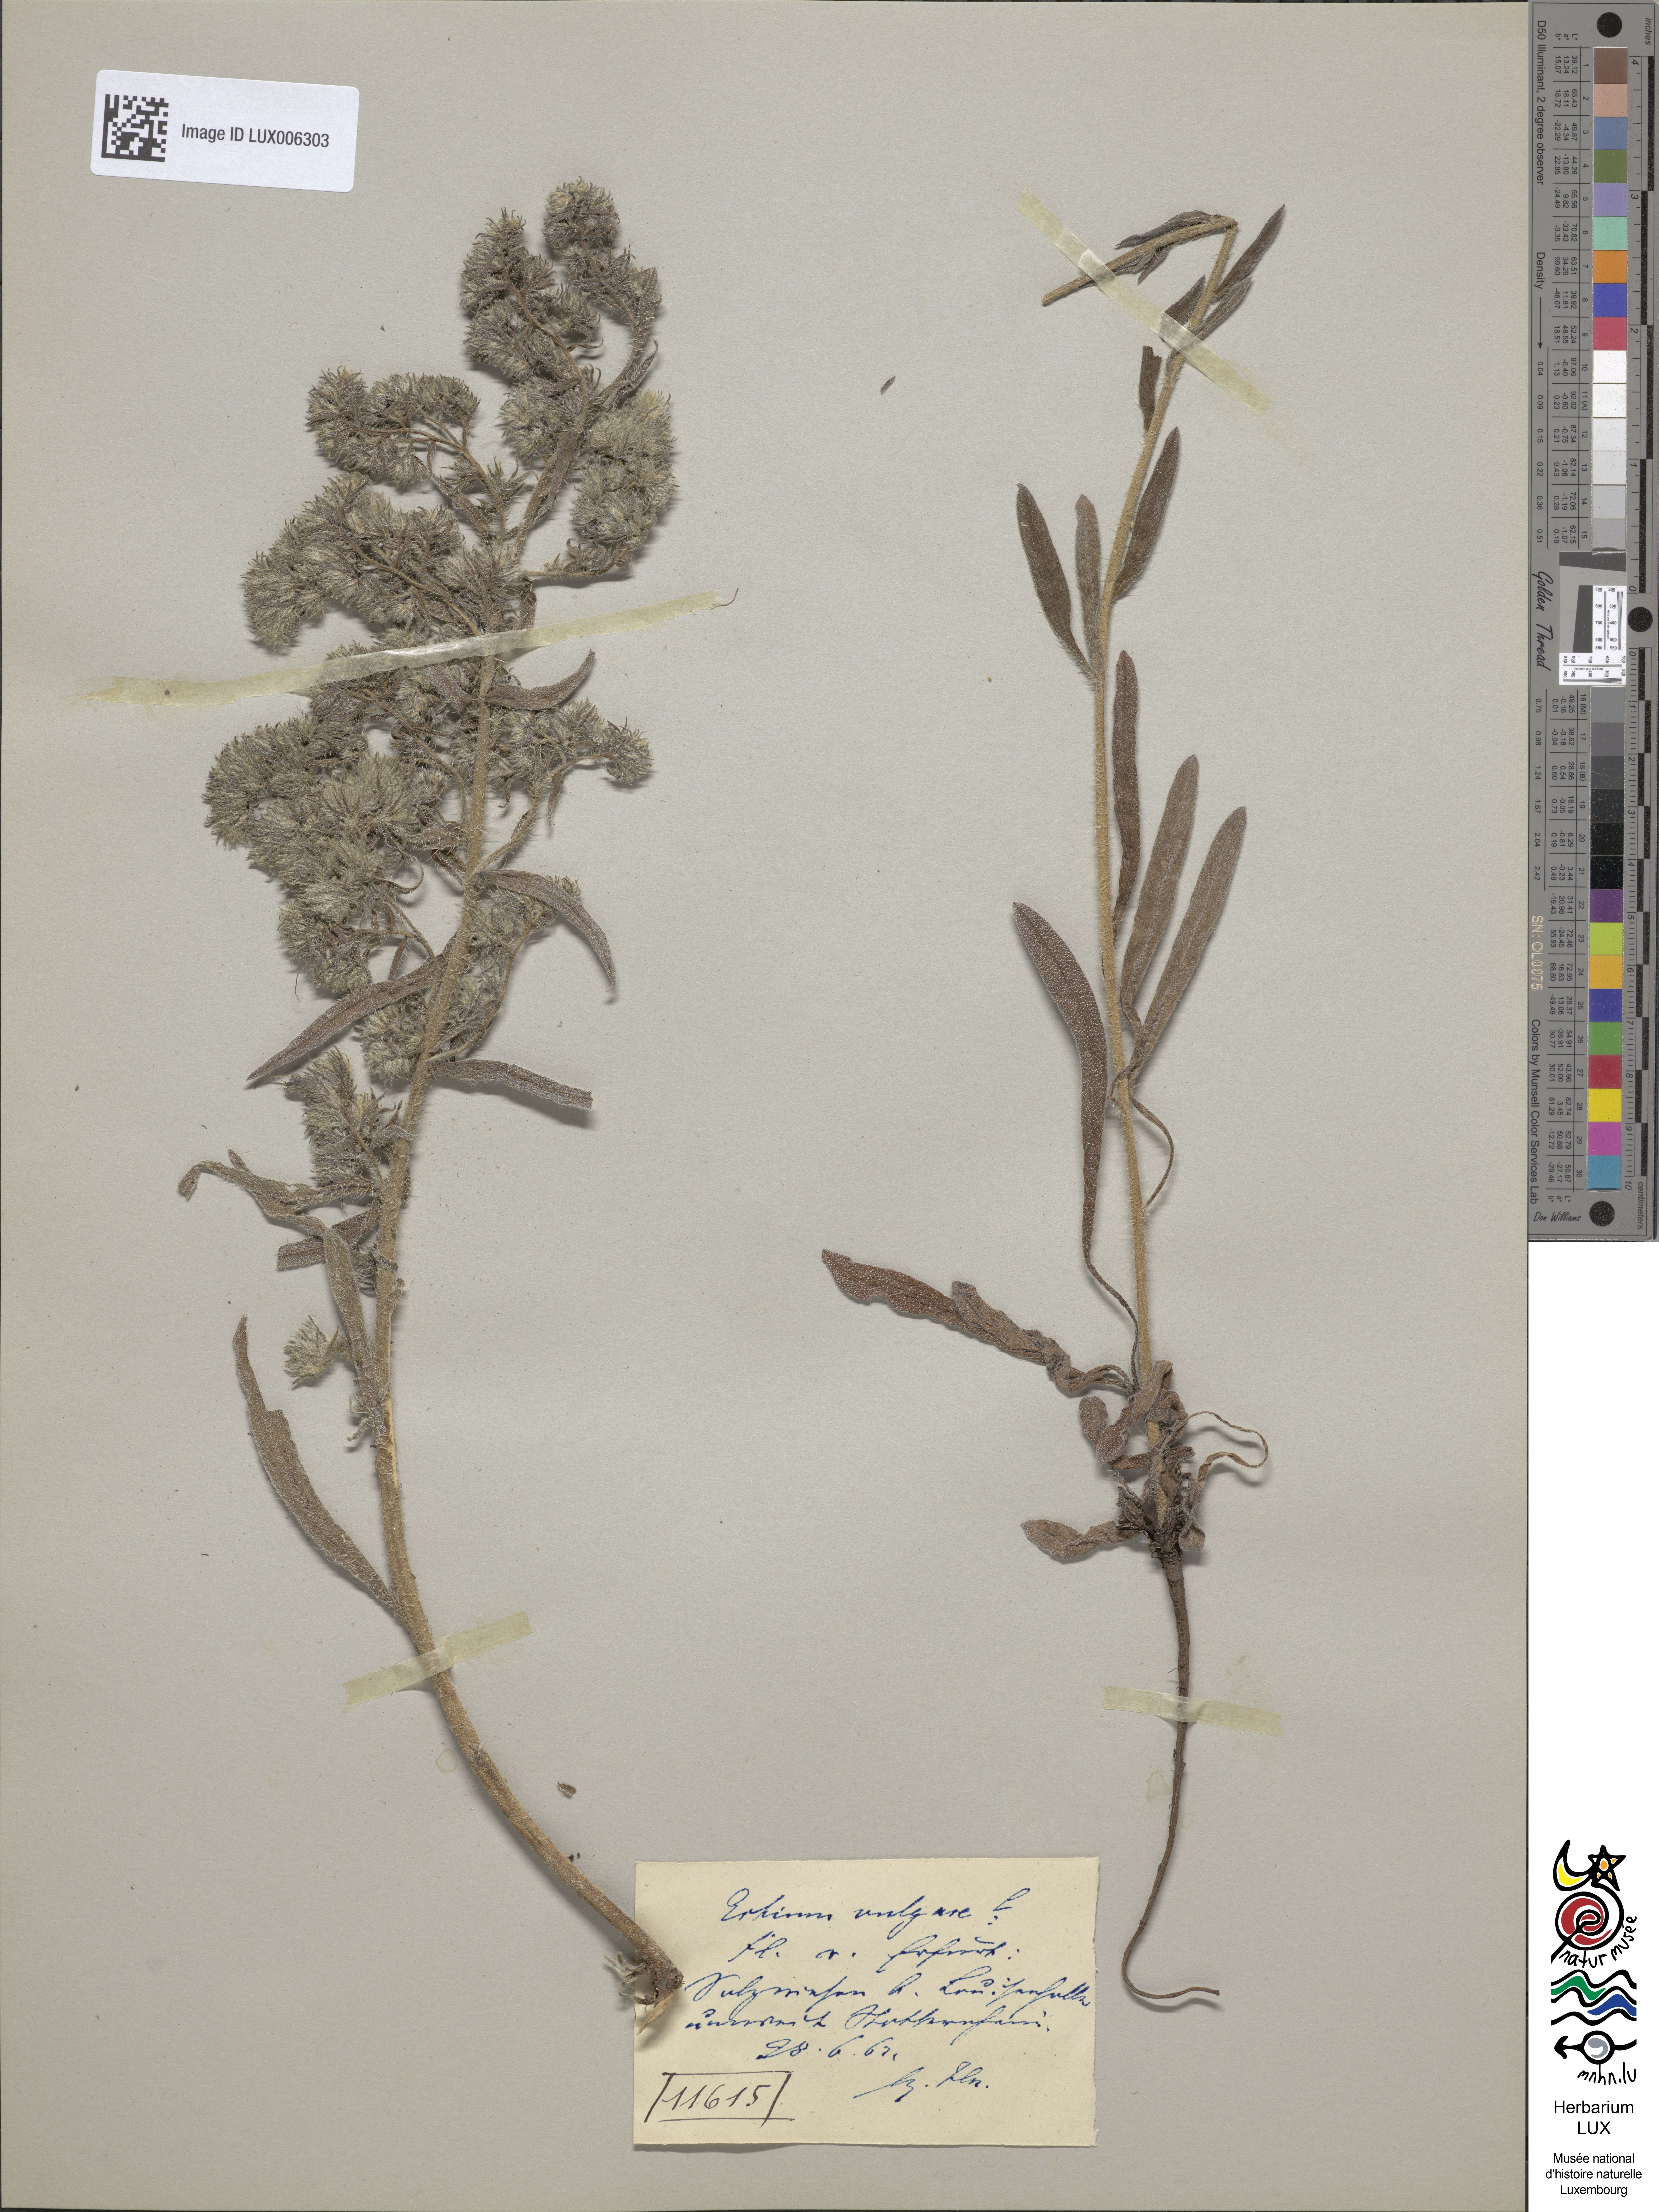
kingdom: Plantae
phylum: Tracheophyta
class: Magnoliopsida
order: Boraginales
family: Boraginaceae
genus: Echium
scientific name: Echium vulgare
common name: Common viper's bugloss
